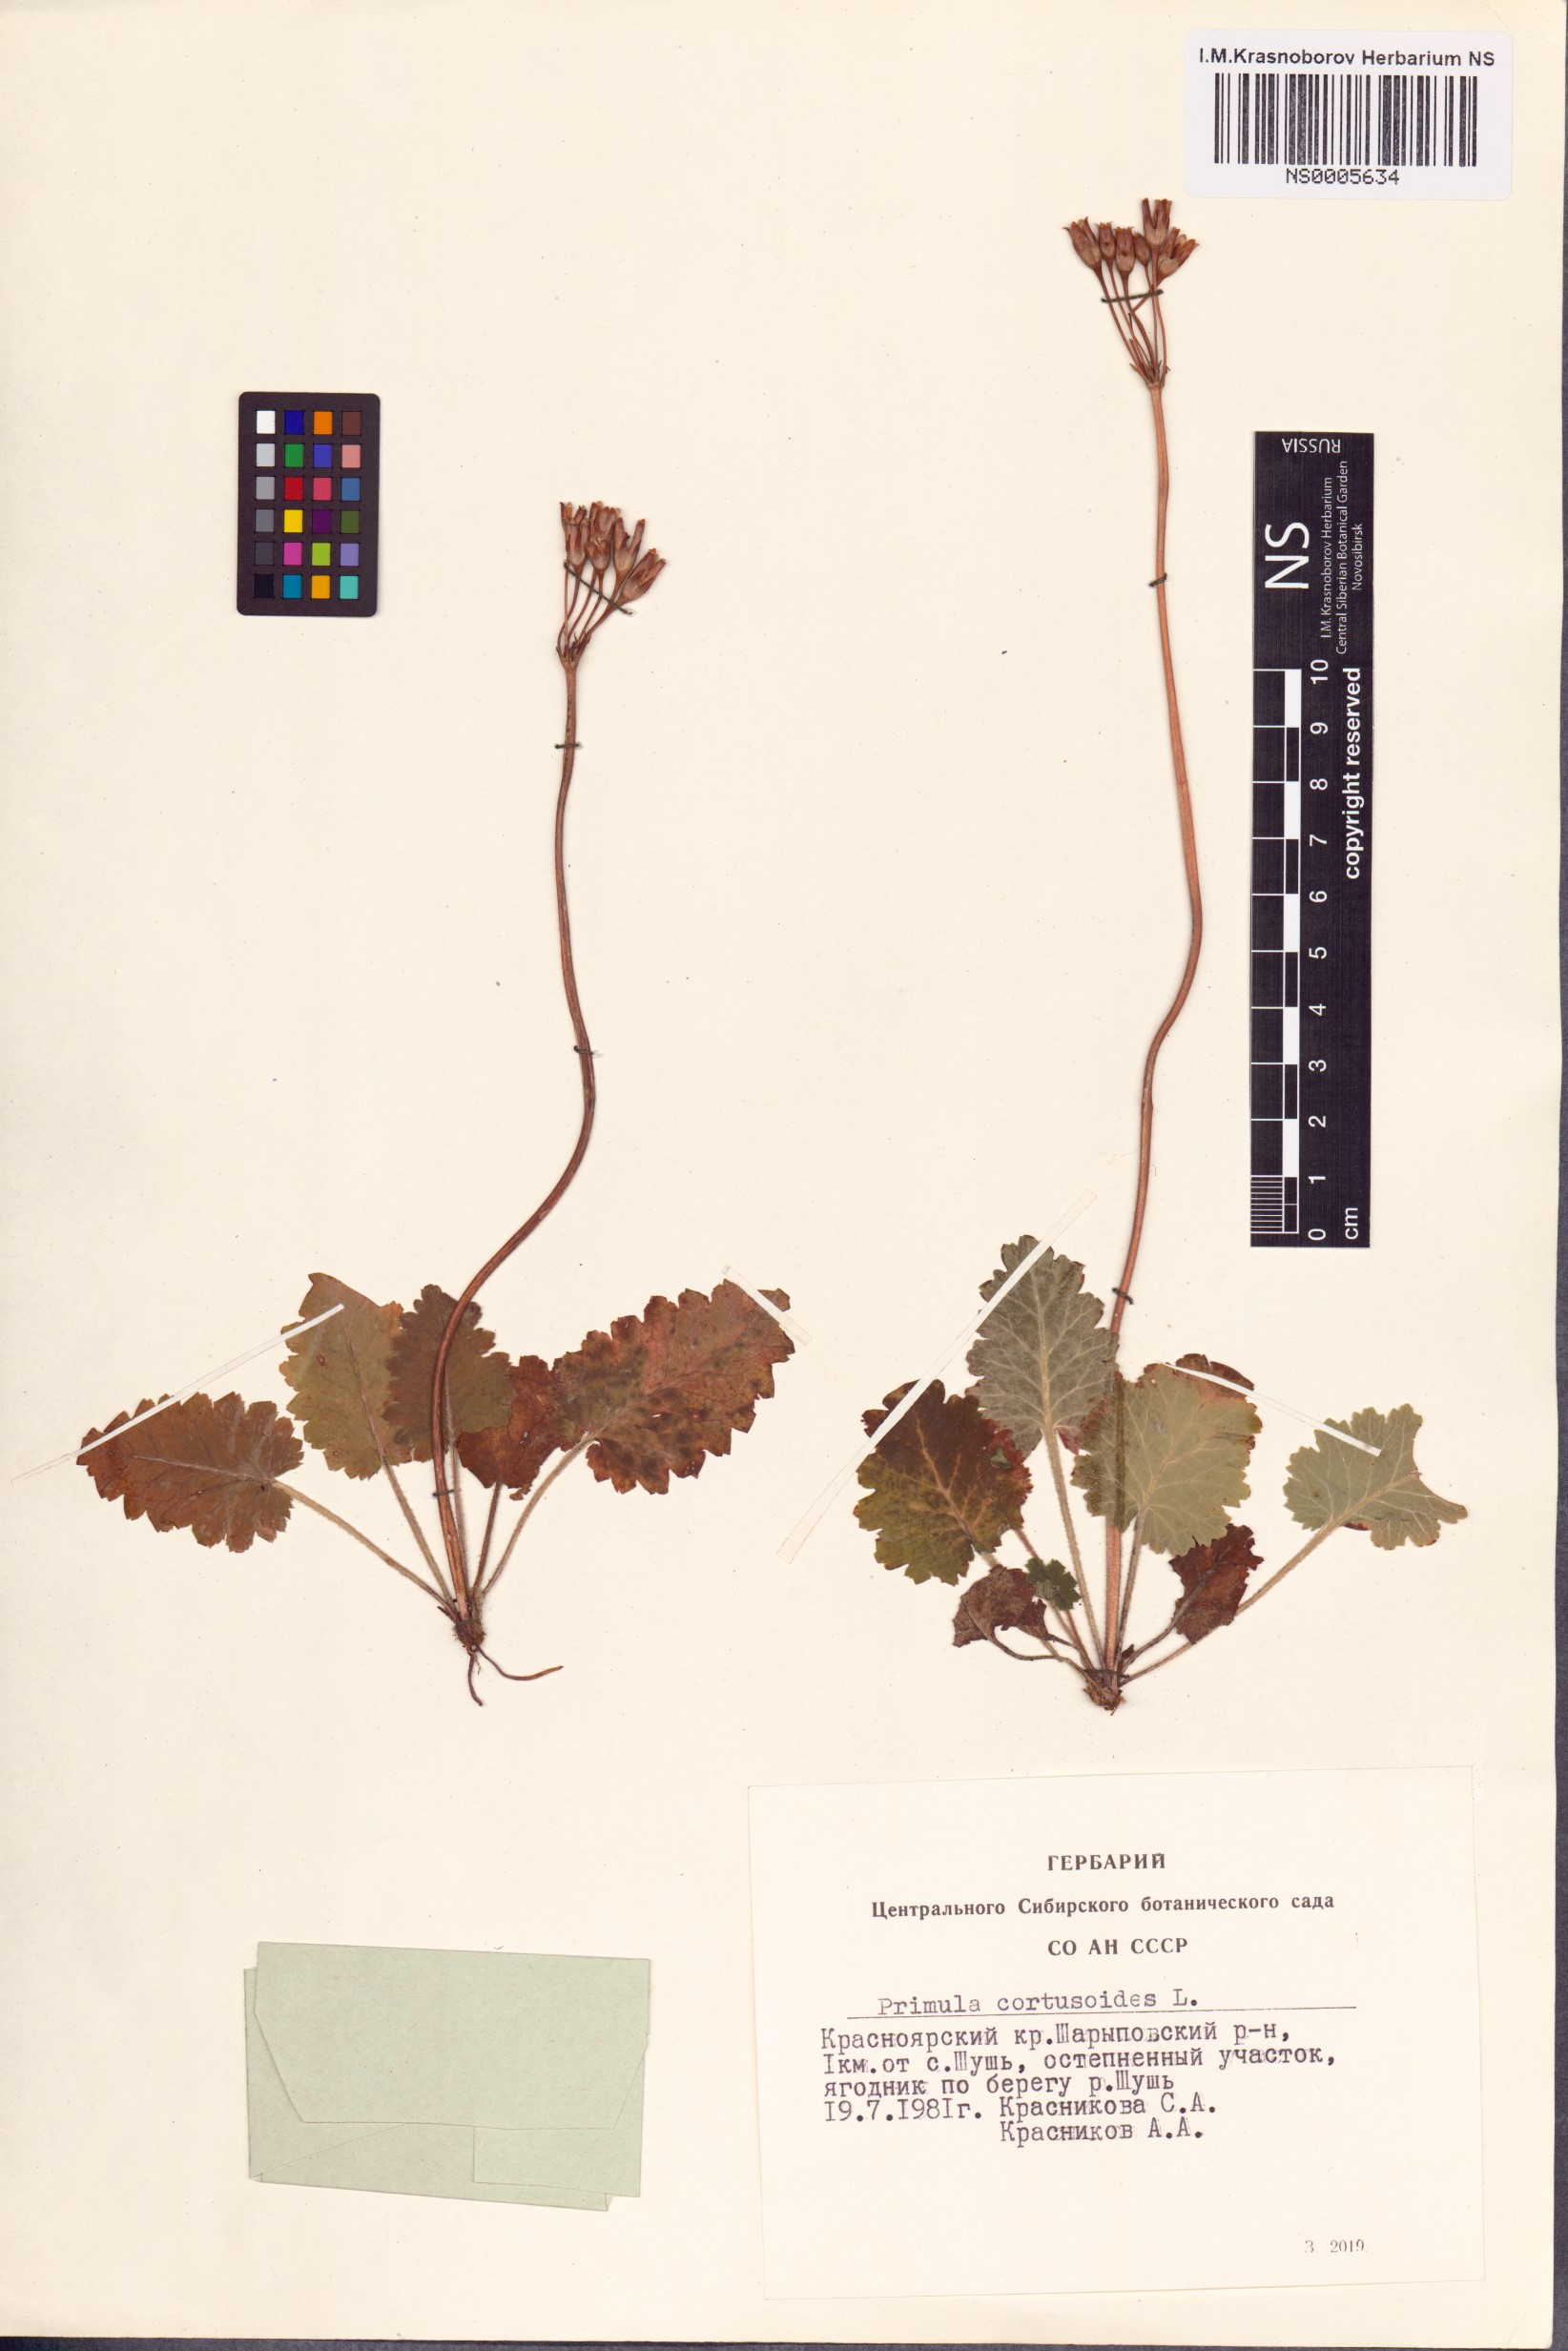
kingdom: Plantae
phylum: Tracheophyta
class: Magnoliopsida
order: Ericales
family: Primulaceae
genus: Primula
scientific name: Primula cortusoides
